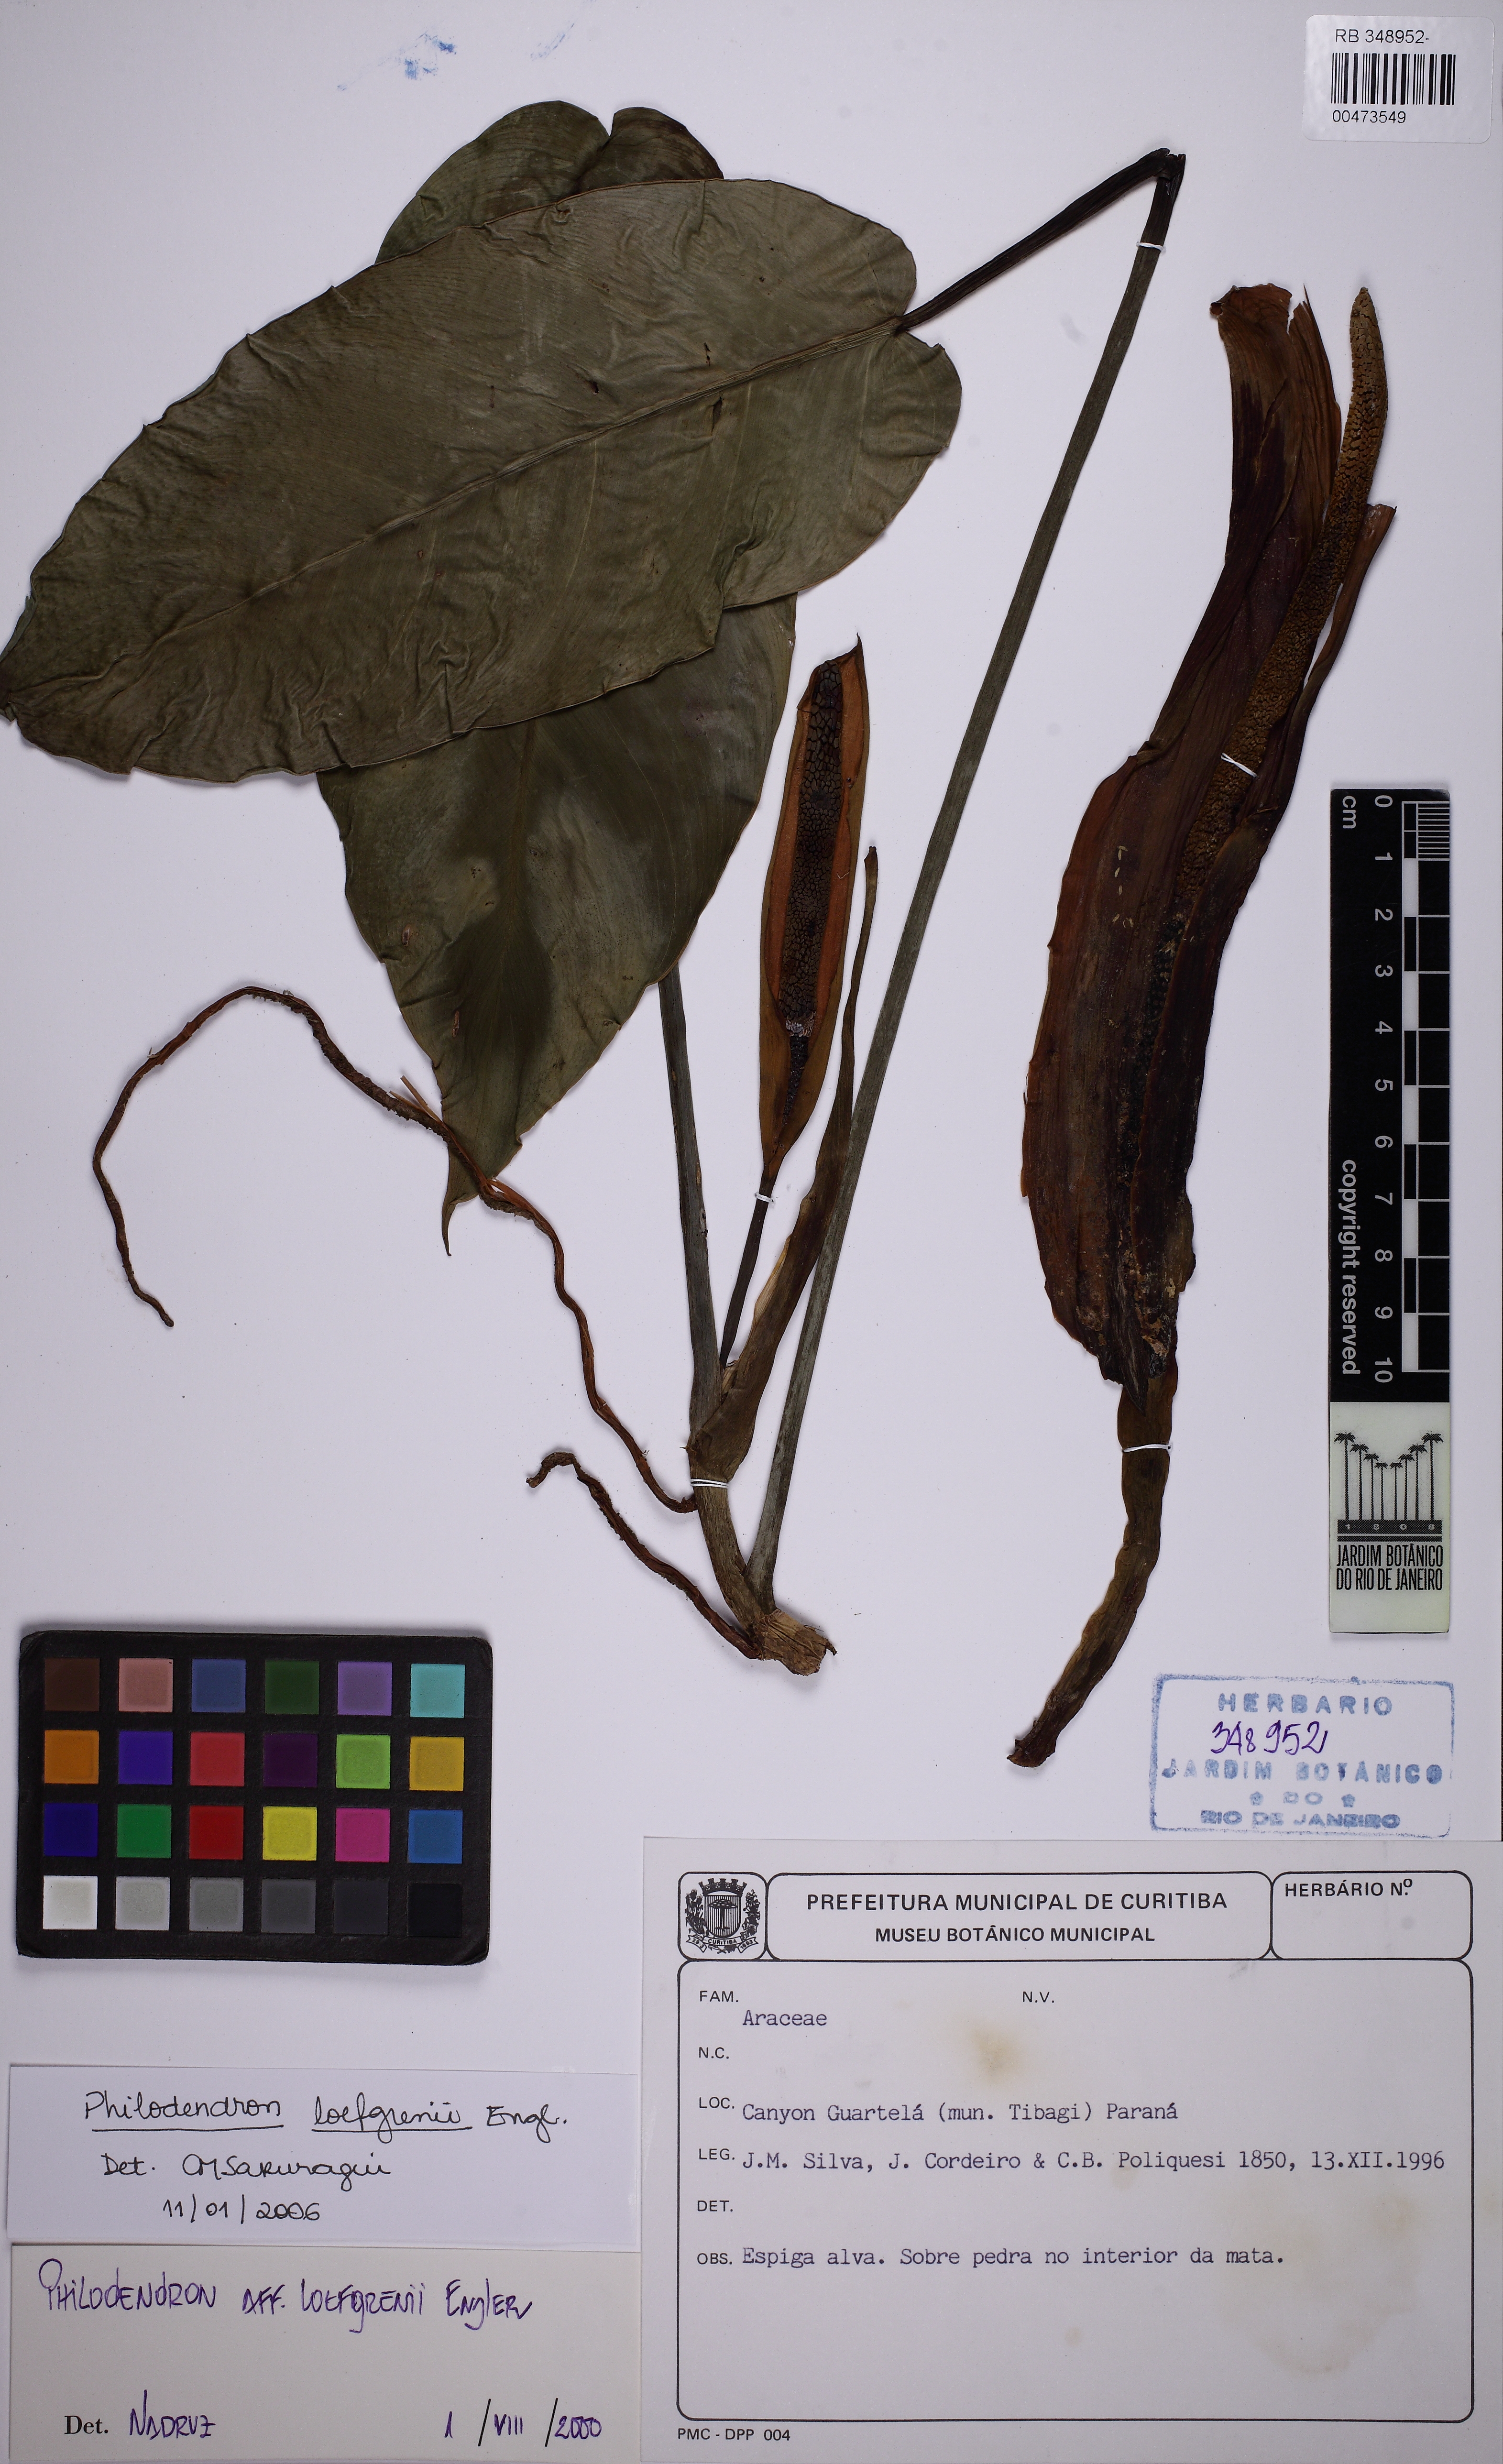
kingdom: Plantae
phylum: Tracheophyta
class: Liliopsida
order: Alismatales
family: Araceae
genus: Philodendron
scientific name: Philodendron loefgrenii
